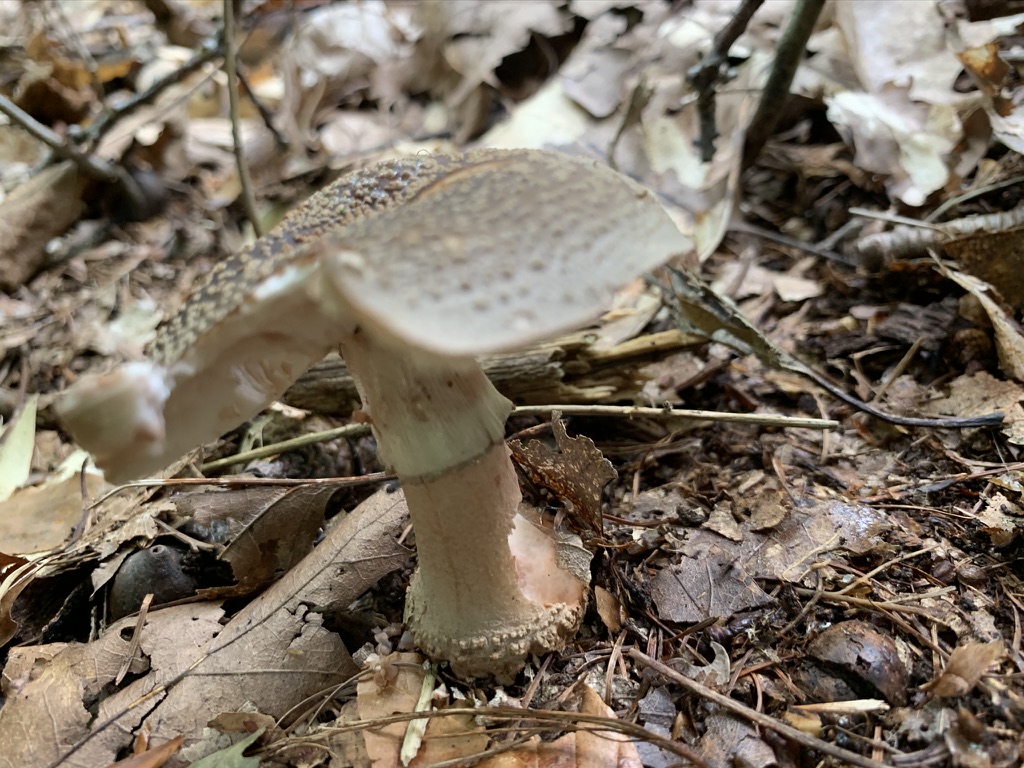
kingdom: Fungi
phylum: Basidiomycota
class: Agaricomycetes
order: Agaricales
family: Amanitaceae
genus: Amanita
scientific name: Amanita rubescens
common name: rødmende fluesvamp
